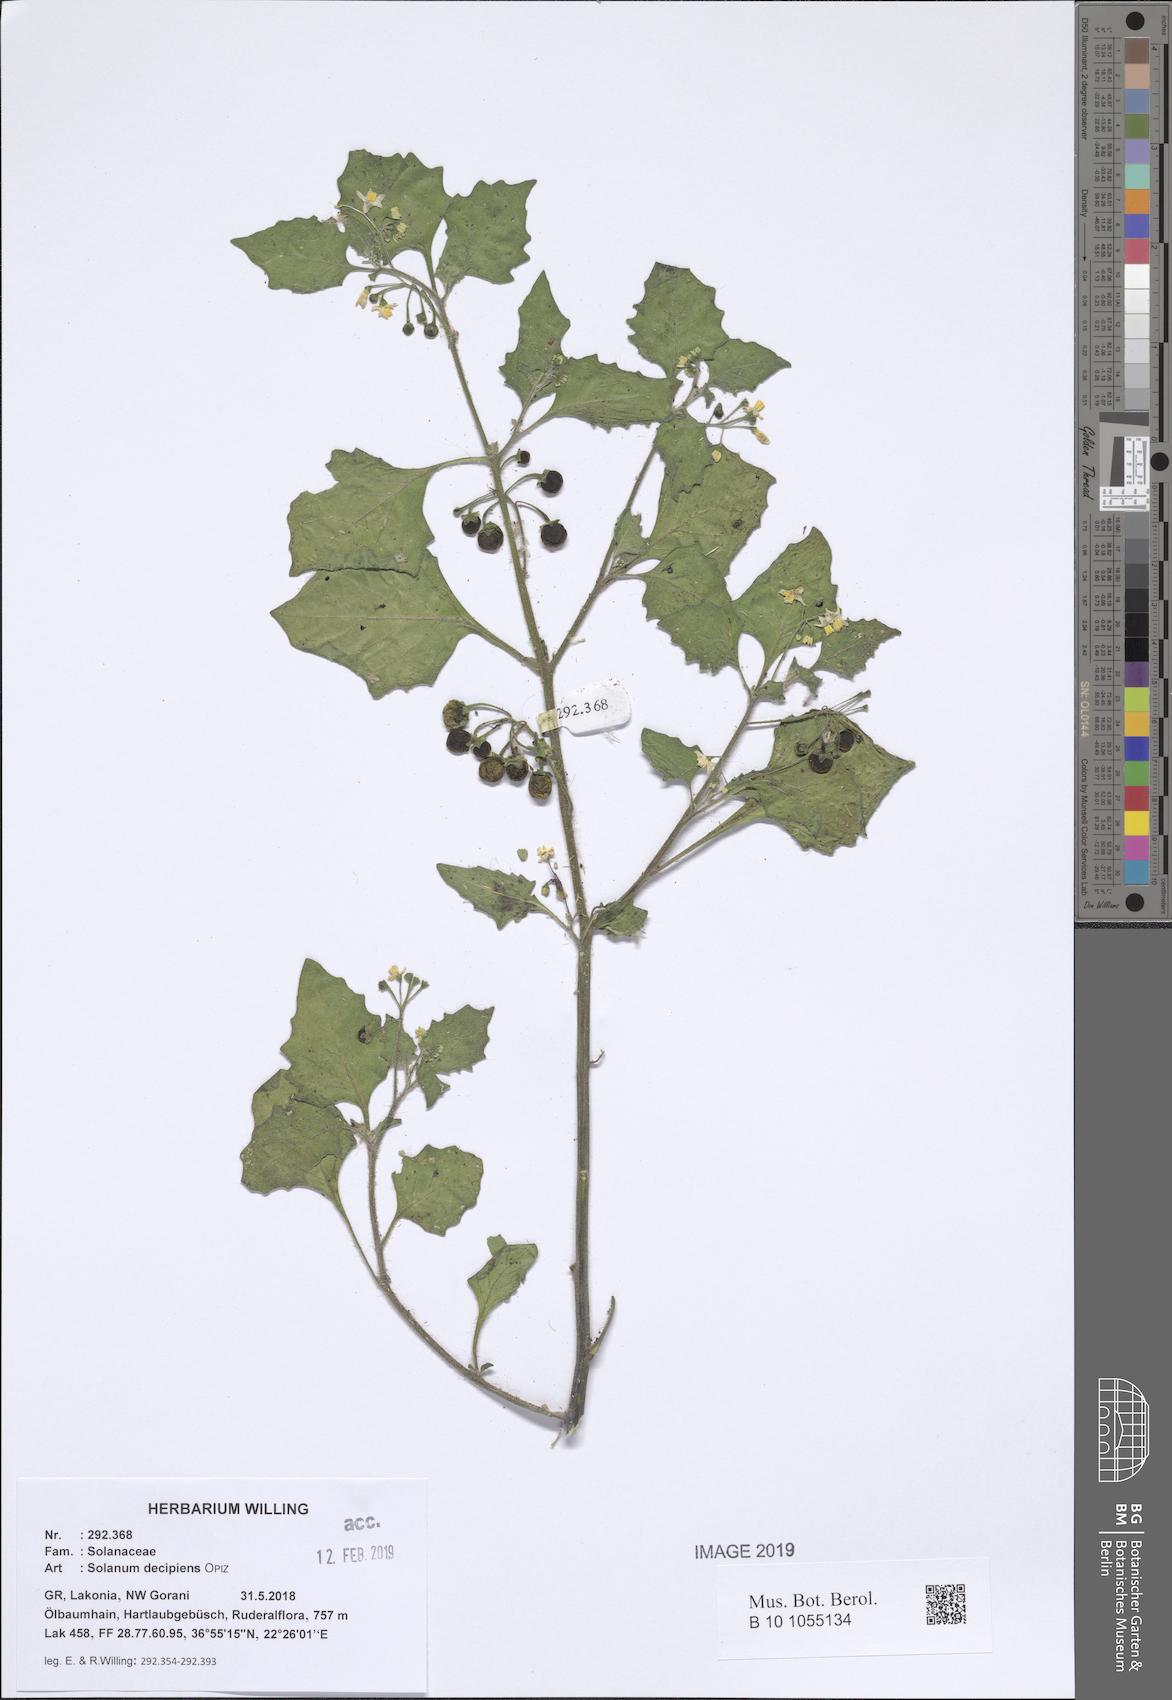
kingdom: Plantae
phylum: Tracheophyta
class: Magnoliopsida
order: Solanales
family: Solanaceae
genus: Solanum
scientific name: Solanum decipiens
